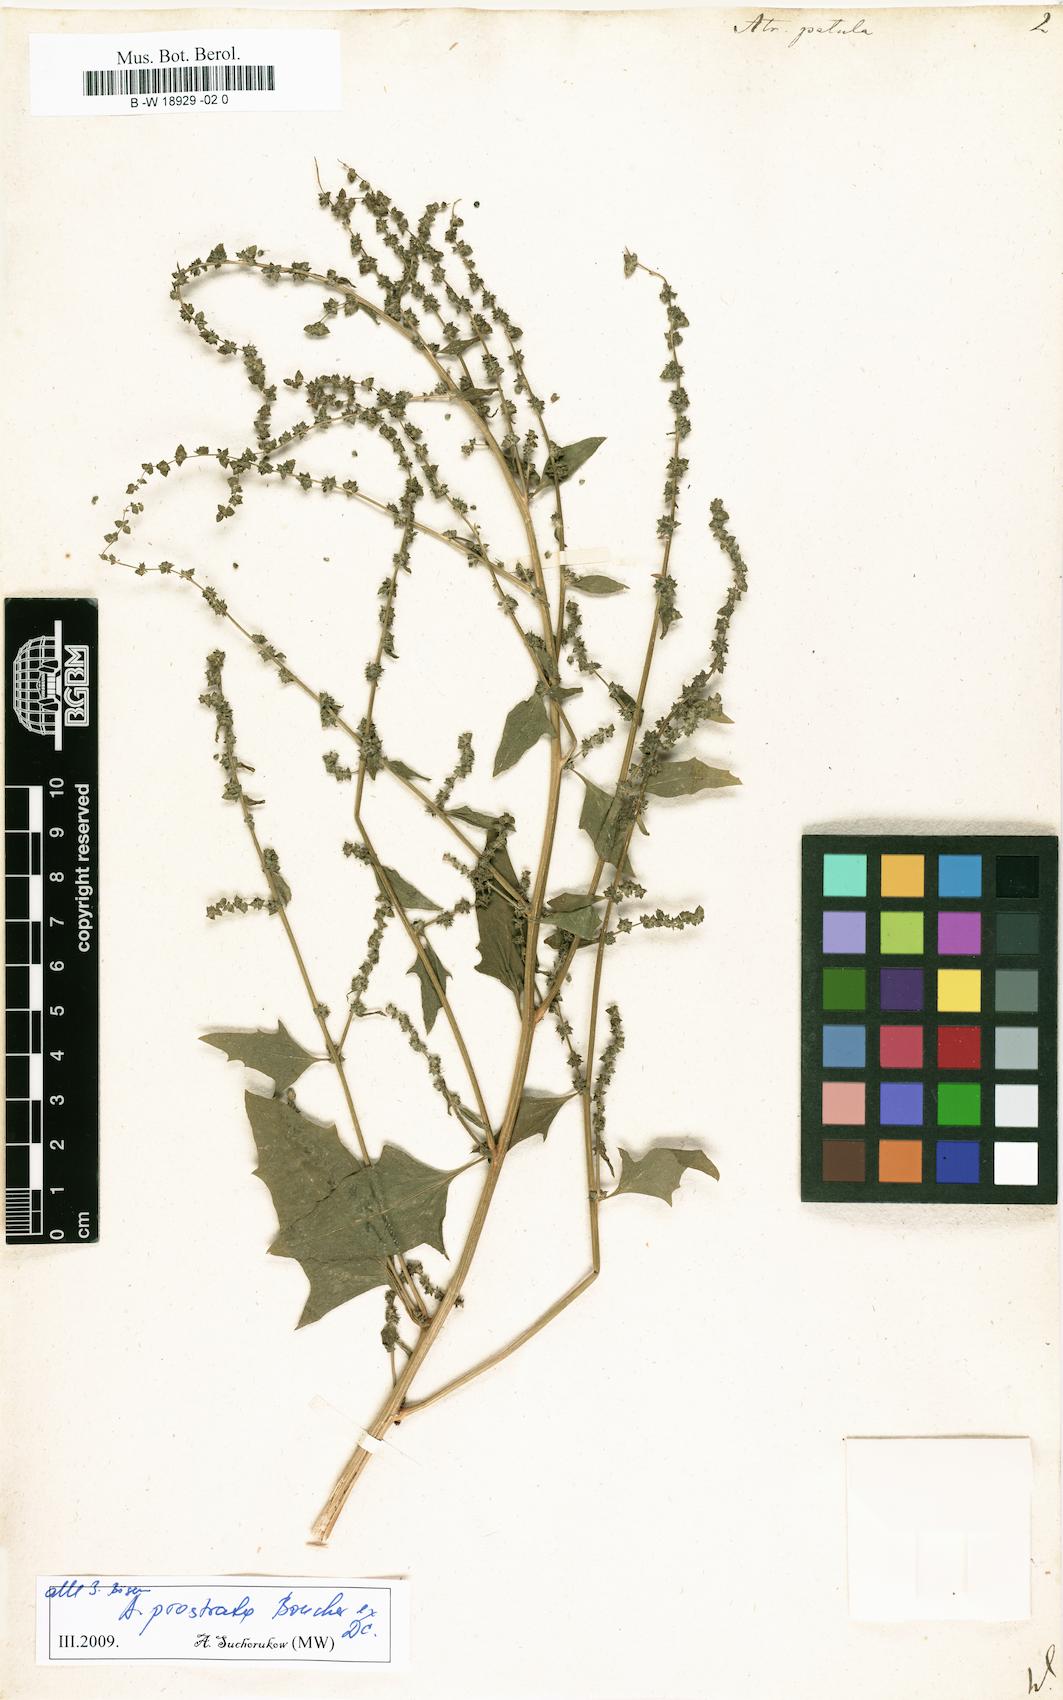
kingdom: Plantae
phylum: Tracheophyta
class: Magnoliopsida
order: Caryophyllales
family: Amaranthaceae
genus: Atriplex
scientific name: Atriplex patula
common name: Common orache
